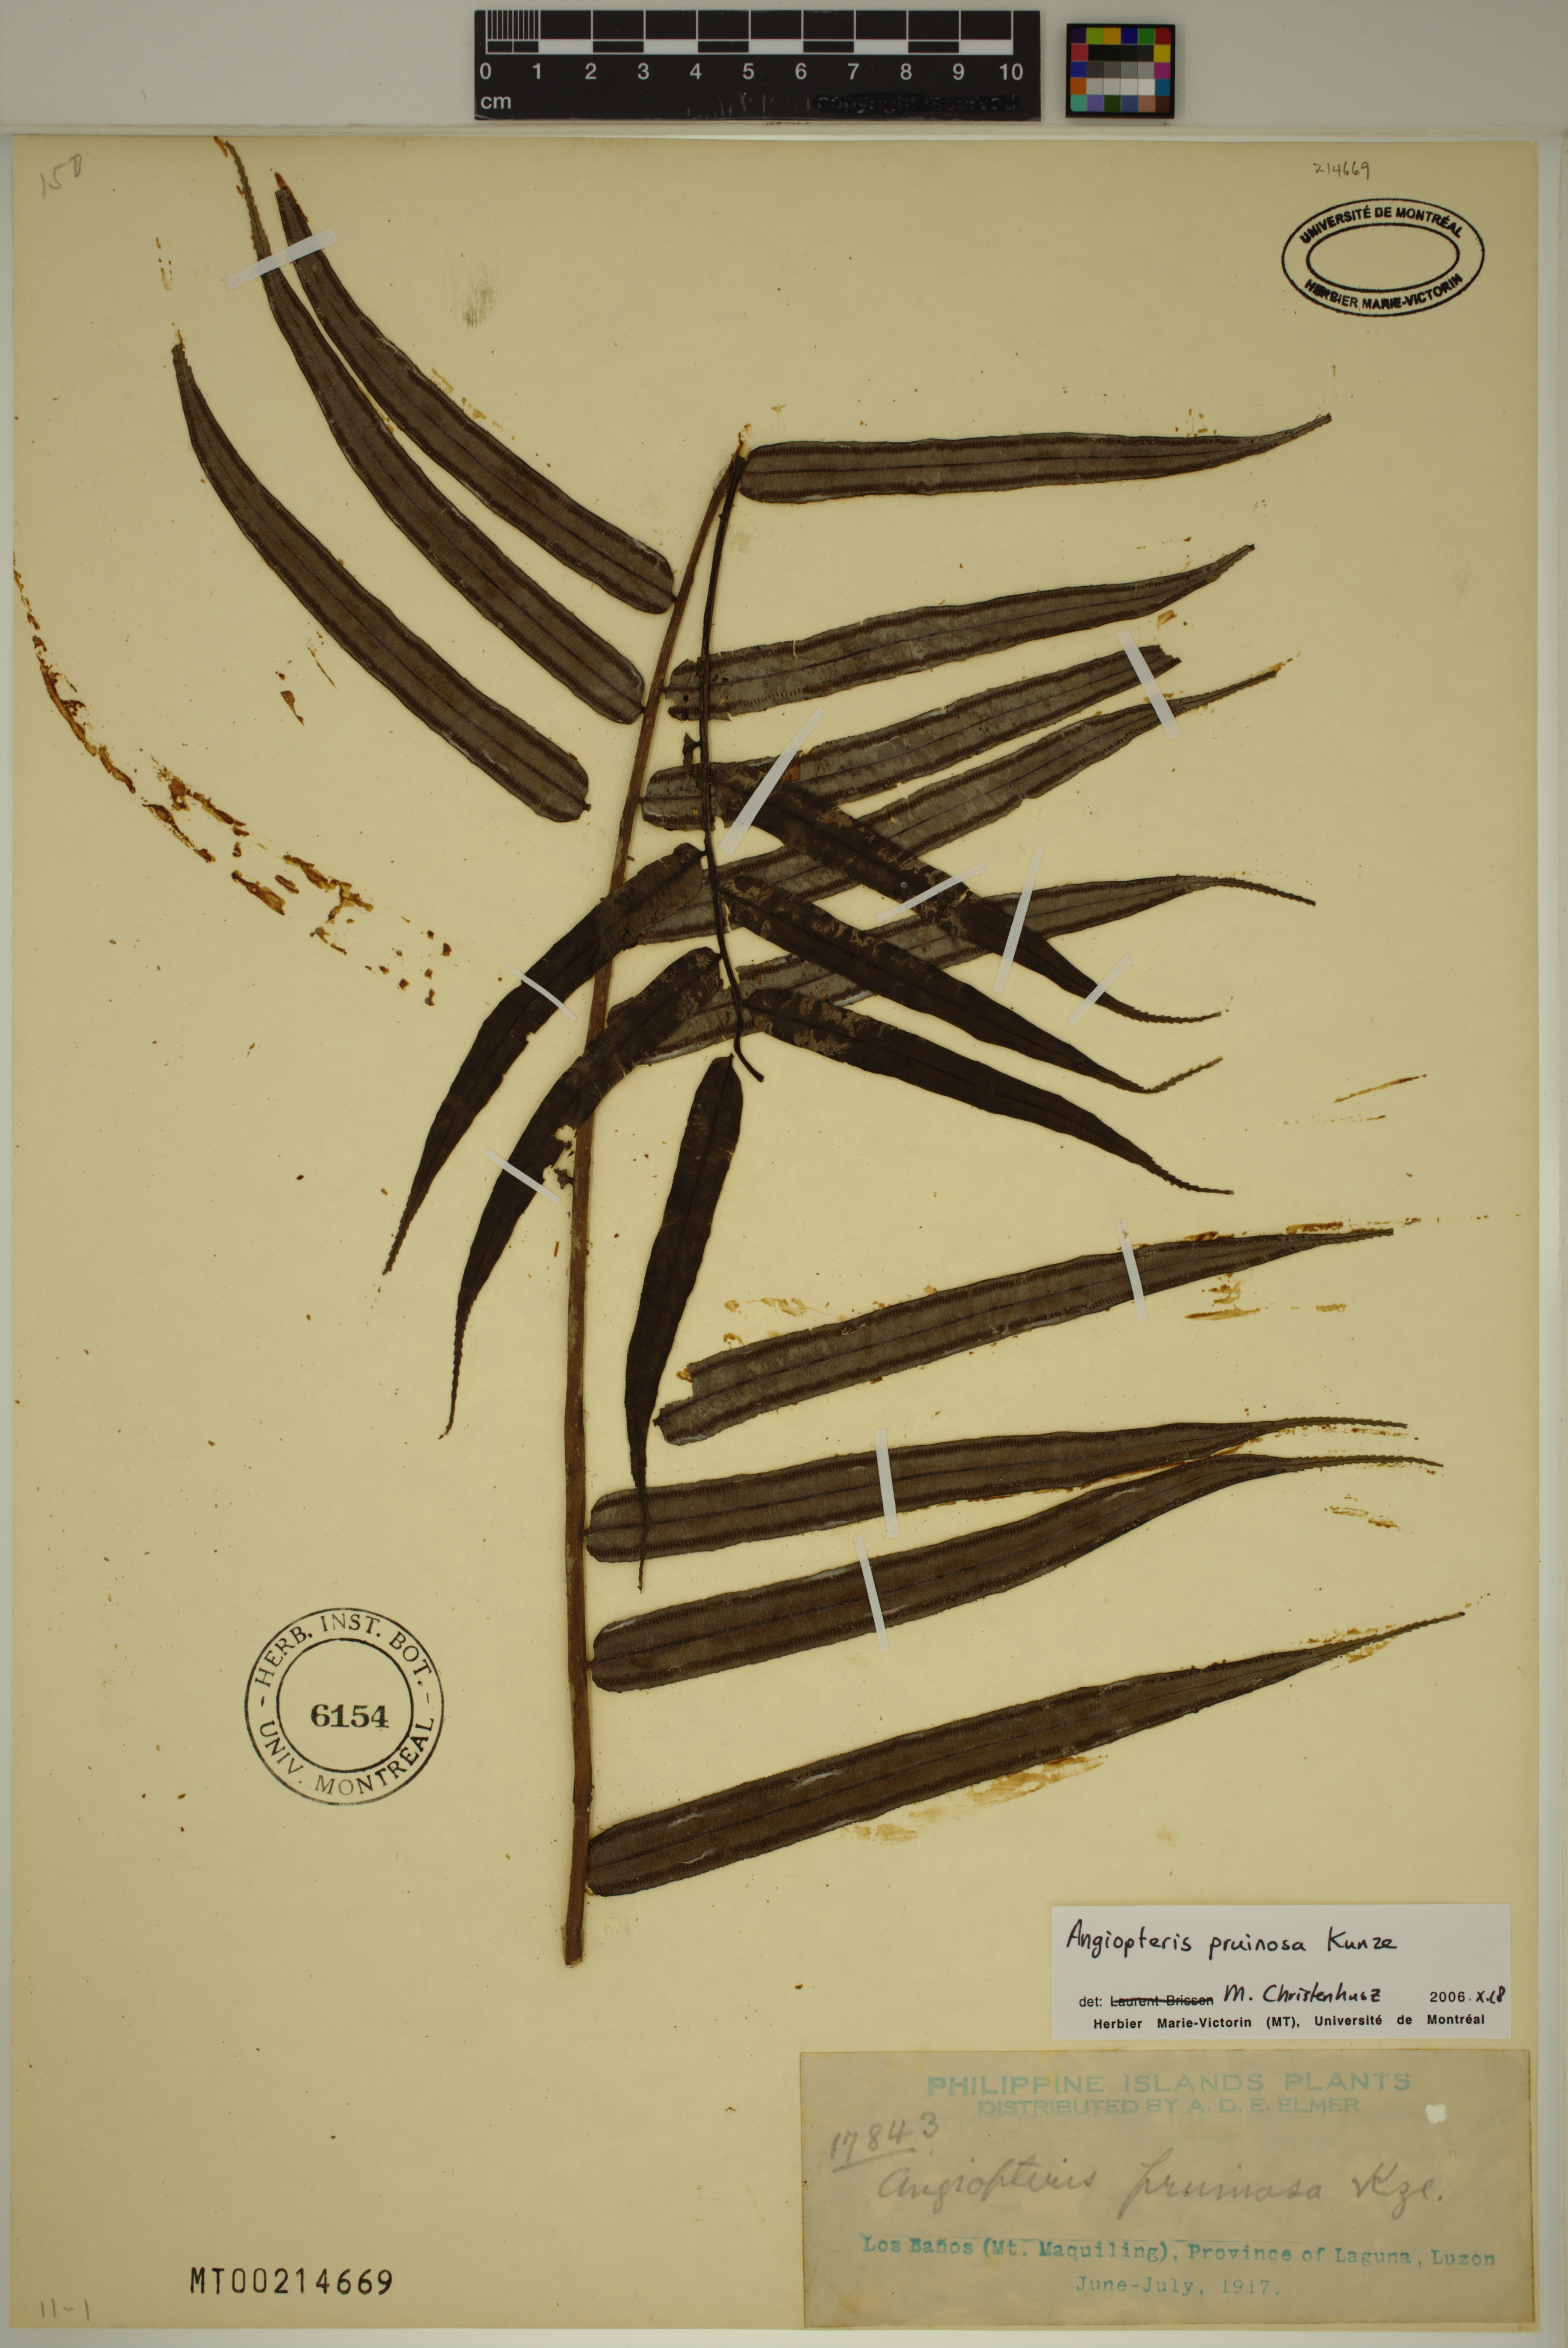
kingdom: Plantae
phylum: Tracheophyta
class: Polypodiopsida
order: Marattiales
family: Marattiaceae
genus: Angiopteris
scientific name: Angiopteris pruinosa
